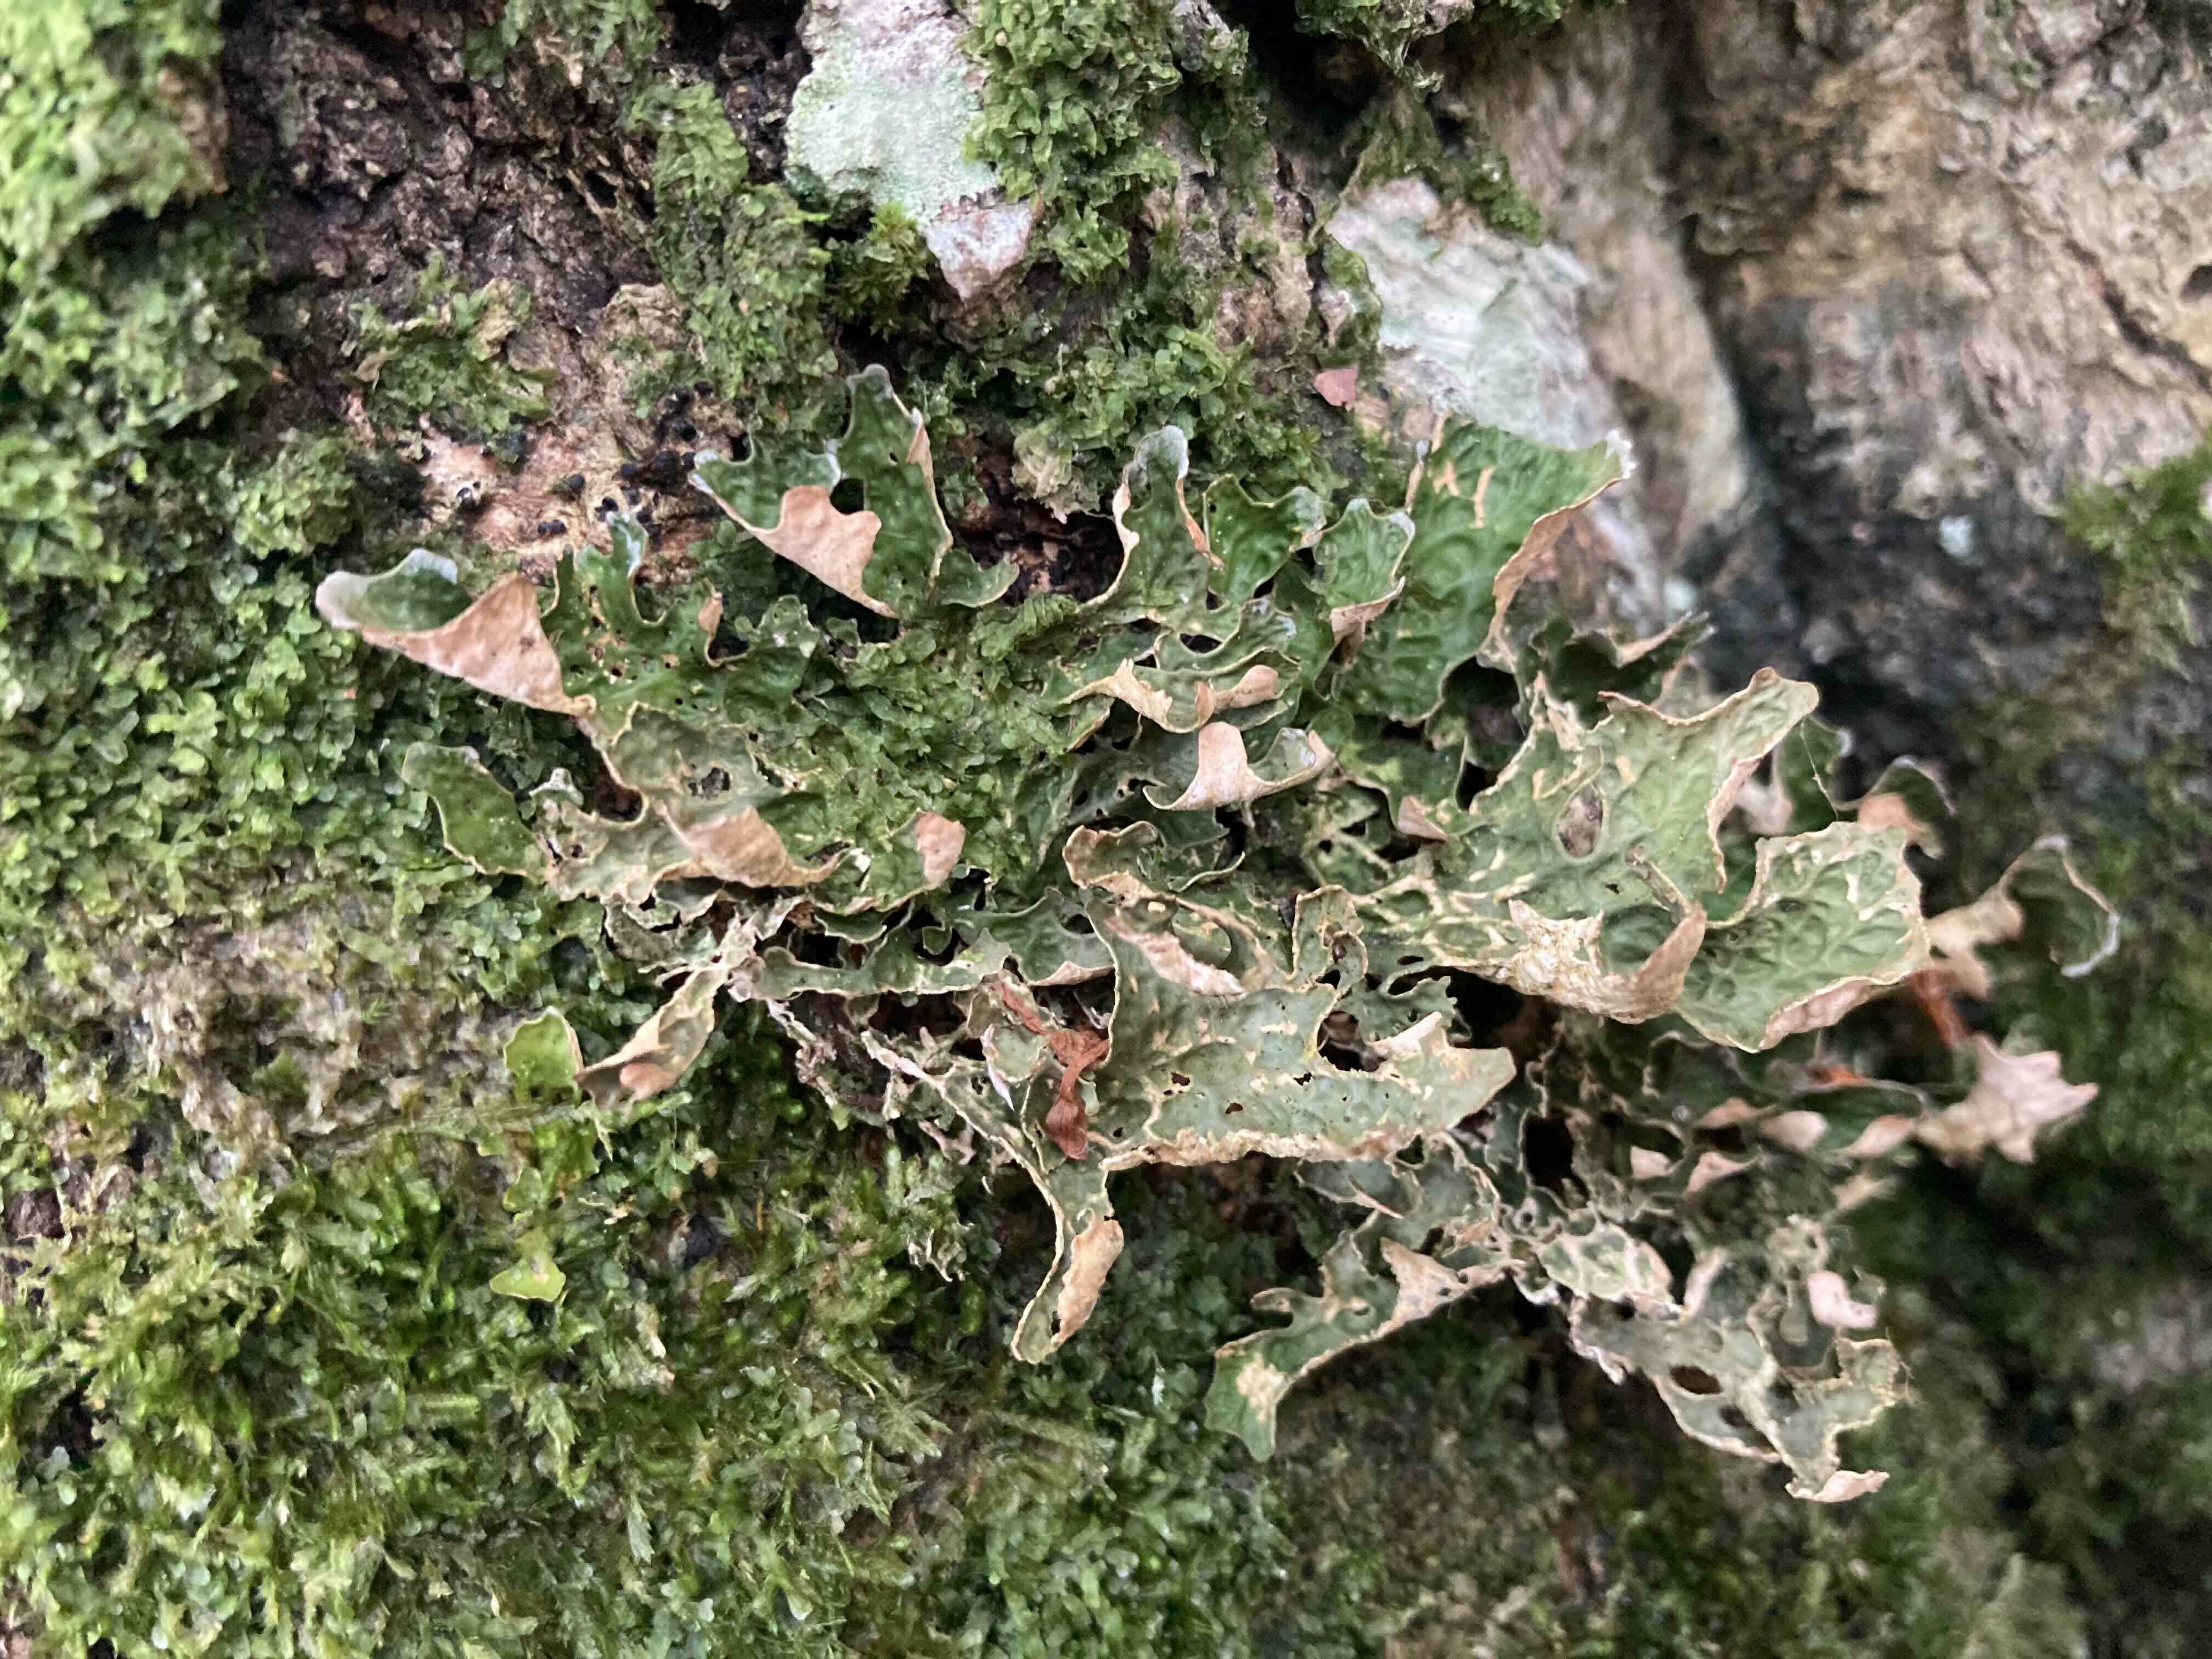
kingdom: Fungi
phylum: Ascomycota
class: Lecanoromycetes
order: Peltigerales
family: Lobariaceae
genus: Lobaria
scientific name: Lobaria pulmonaria
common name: almindelig lungelav
